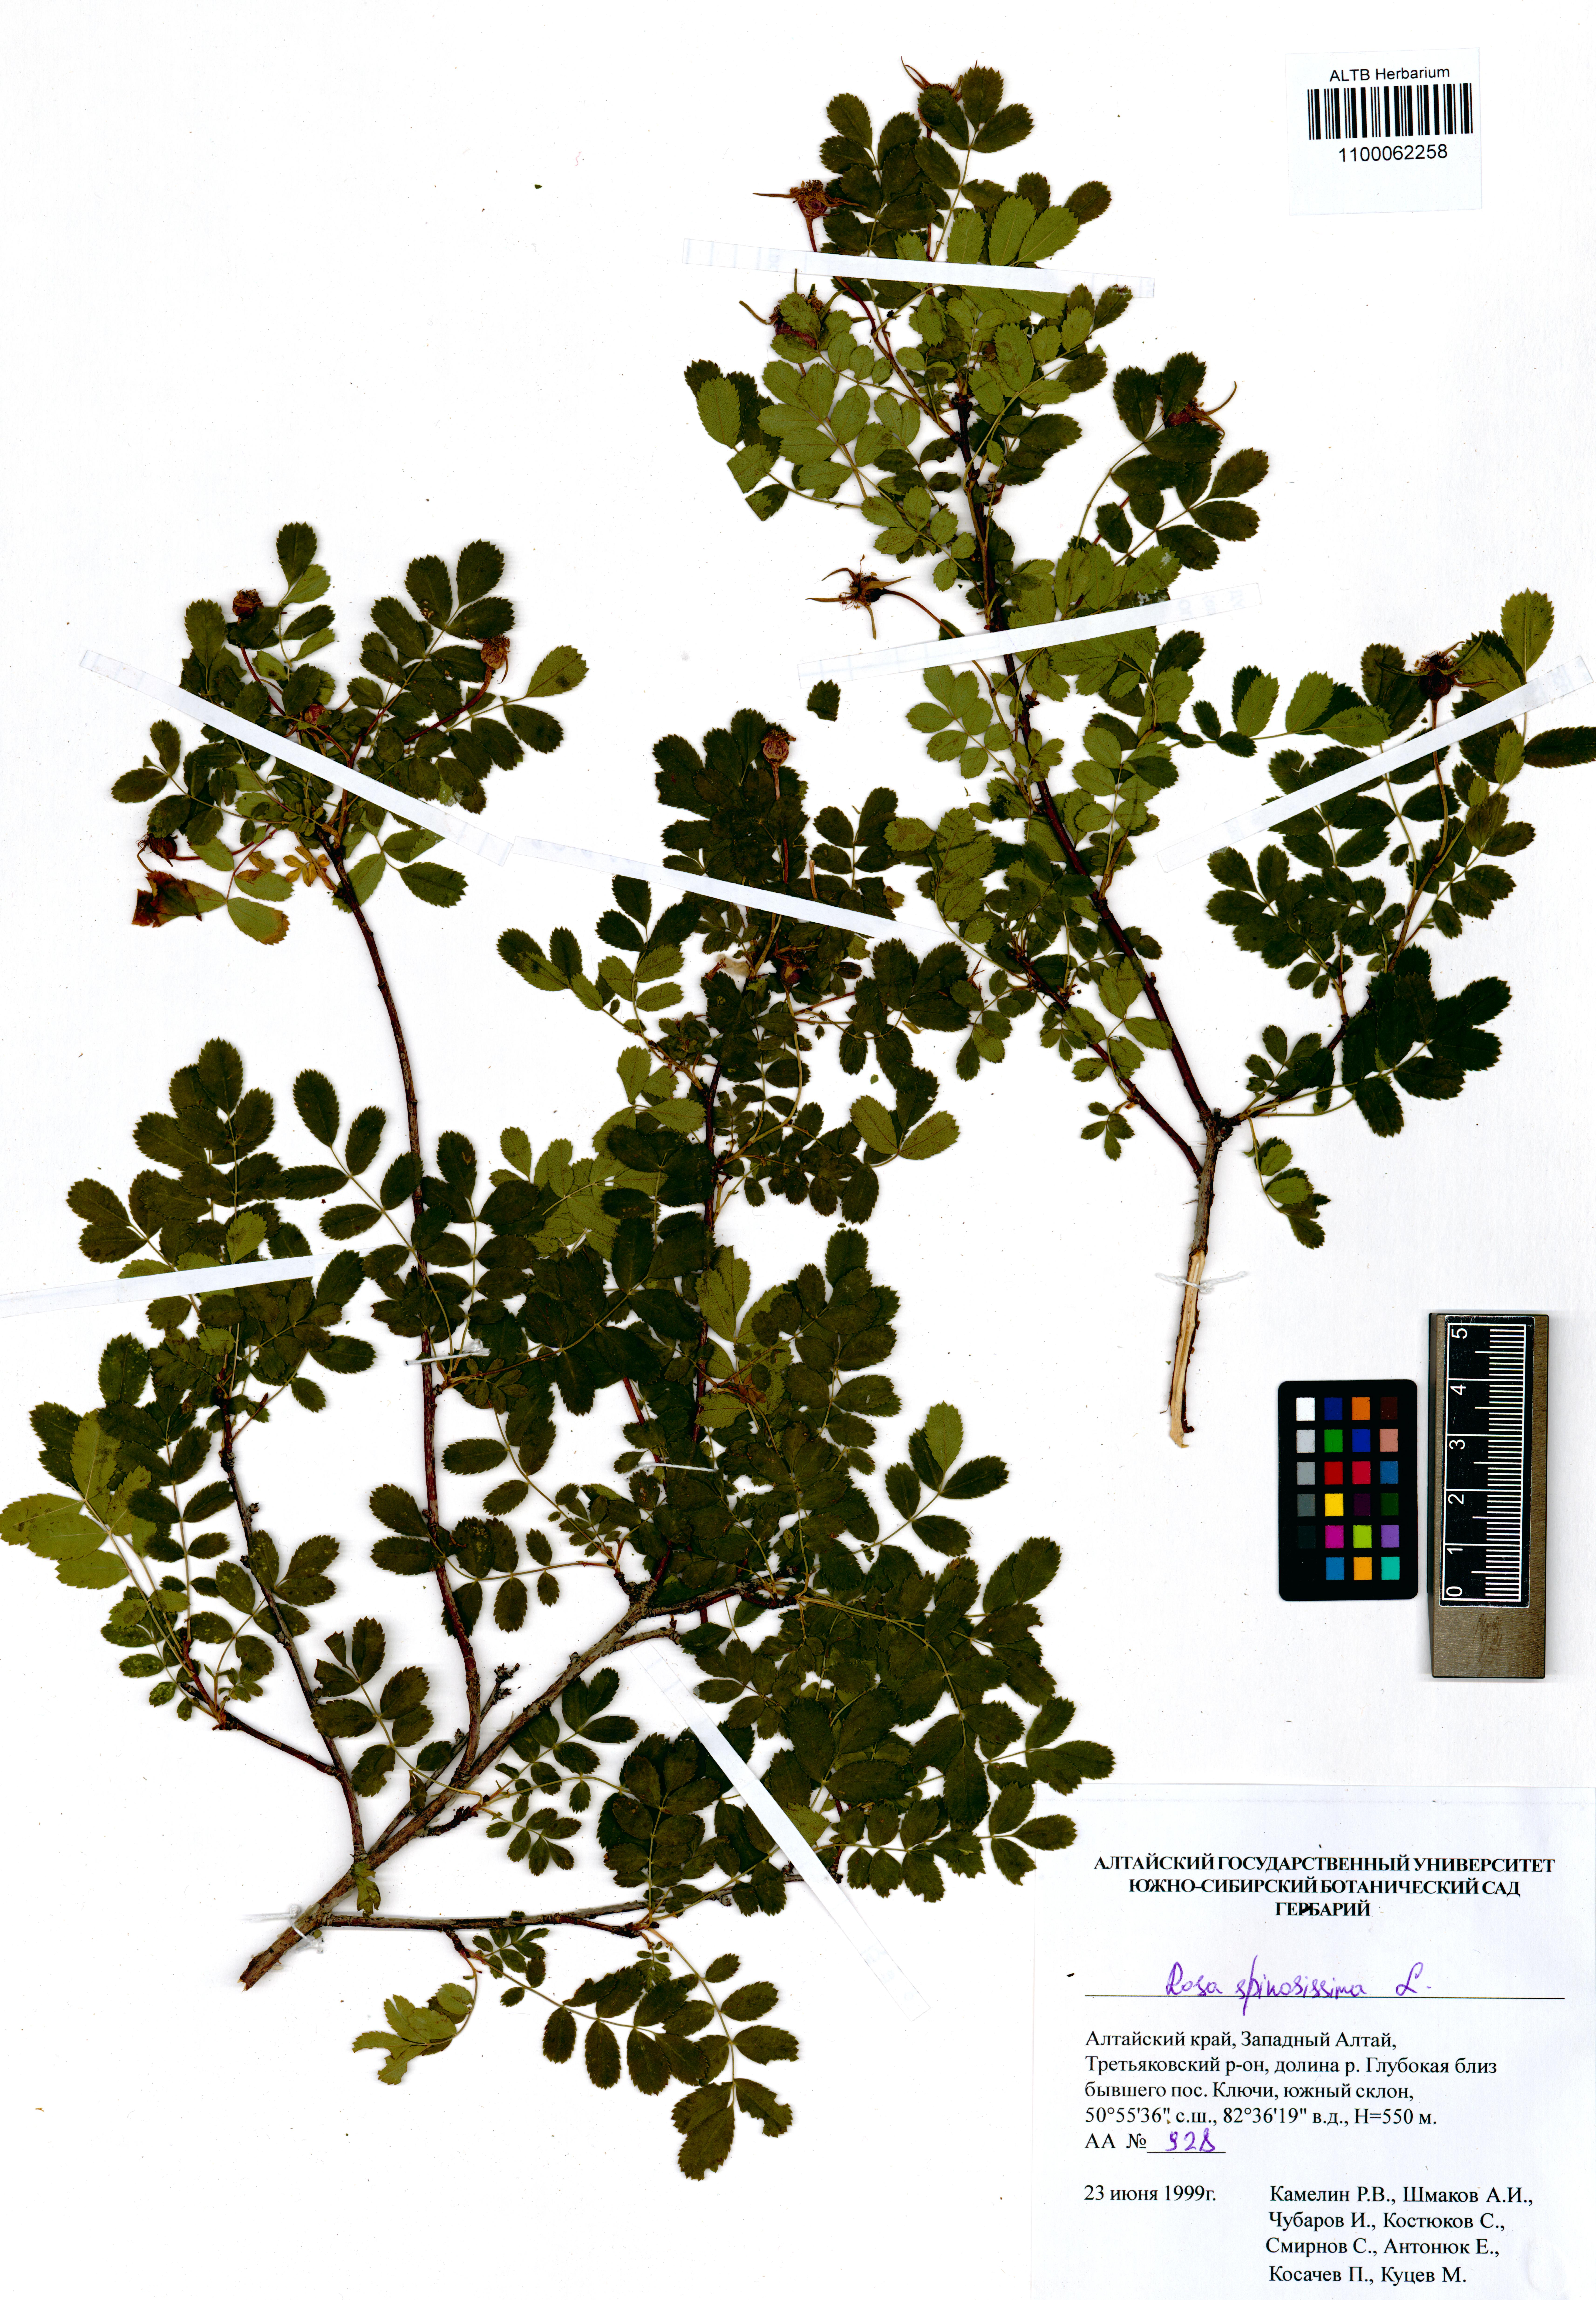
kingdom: Plantae
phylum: Tracheophyta
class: Magnoliopsida
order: Rosales
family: Rosaceae
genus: Rosa
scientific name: Rosa spinosissima
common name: Burnet rose
